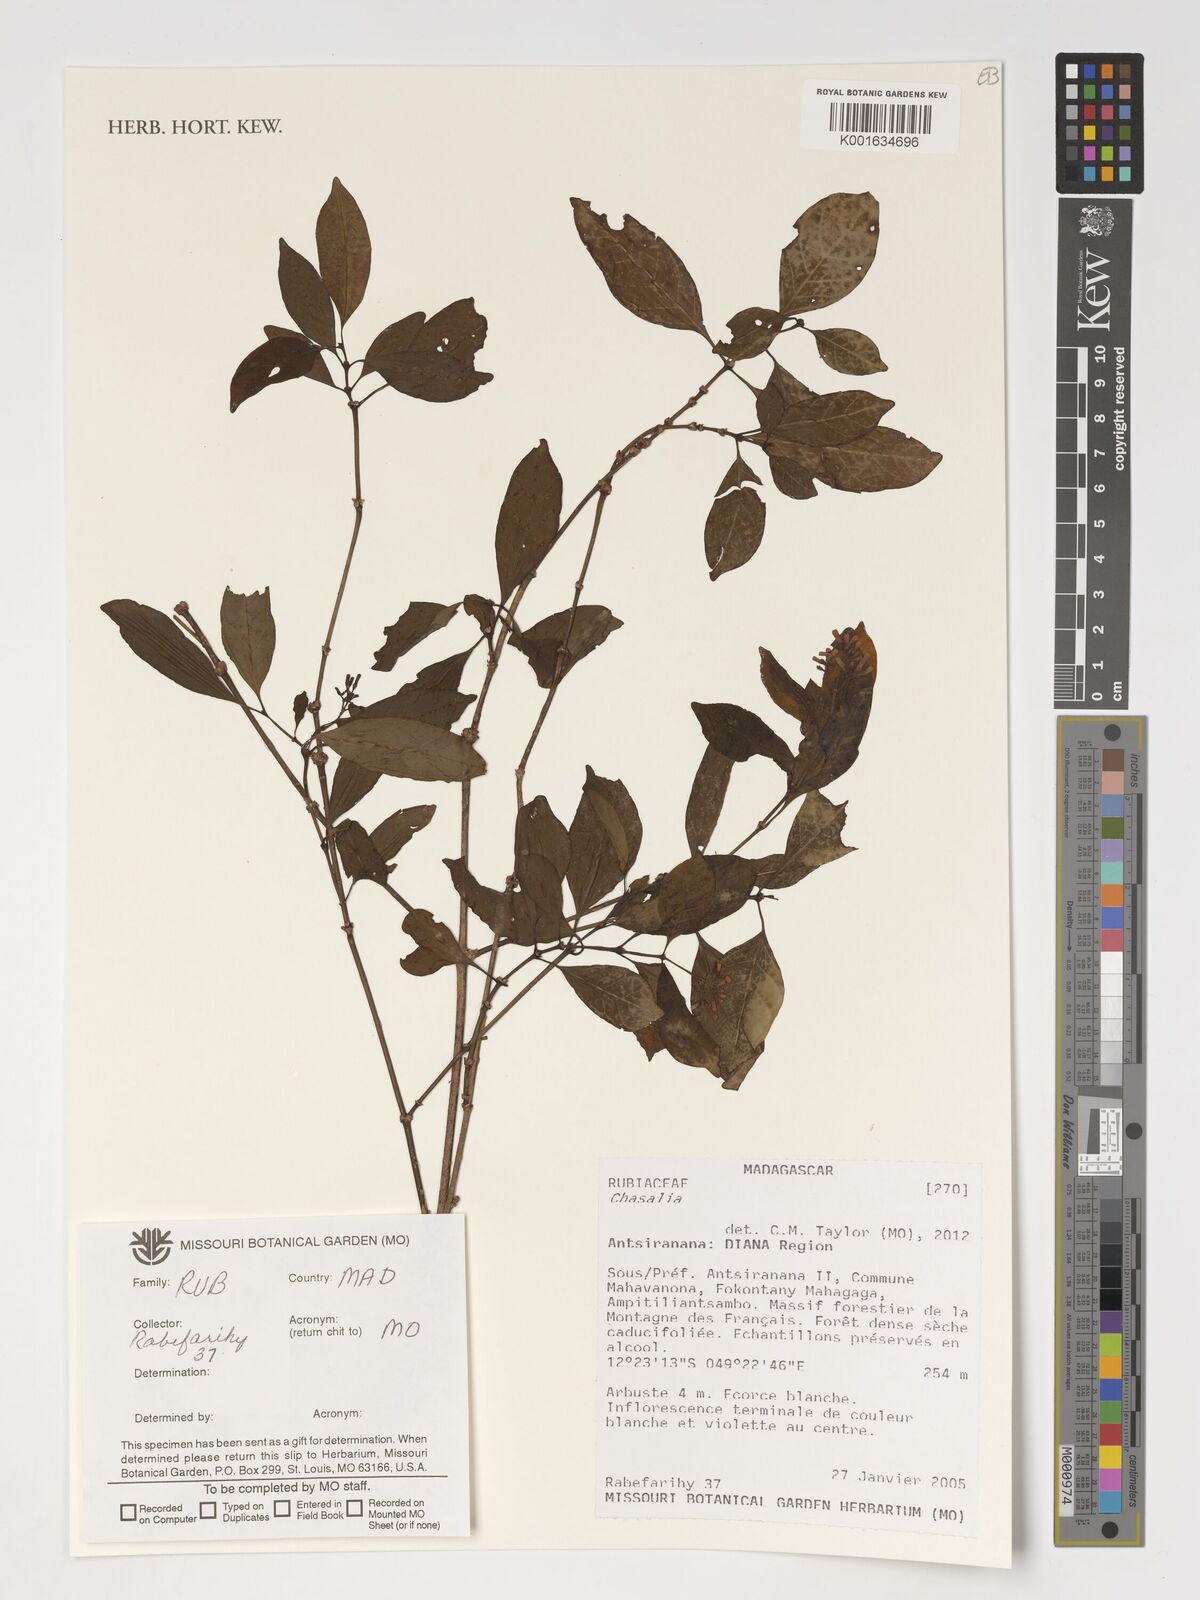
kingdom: Plantae
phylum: Tracheophyta
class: Magnoliopsida
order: Gentianales
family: Rubiaceae
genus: Chassalia
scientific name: Chassalia
